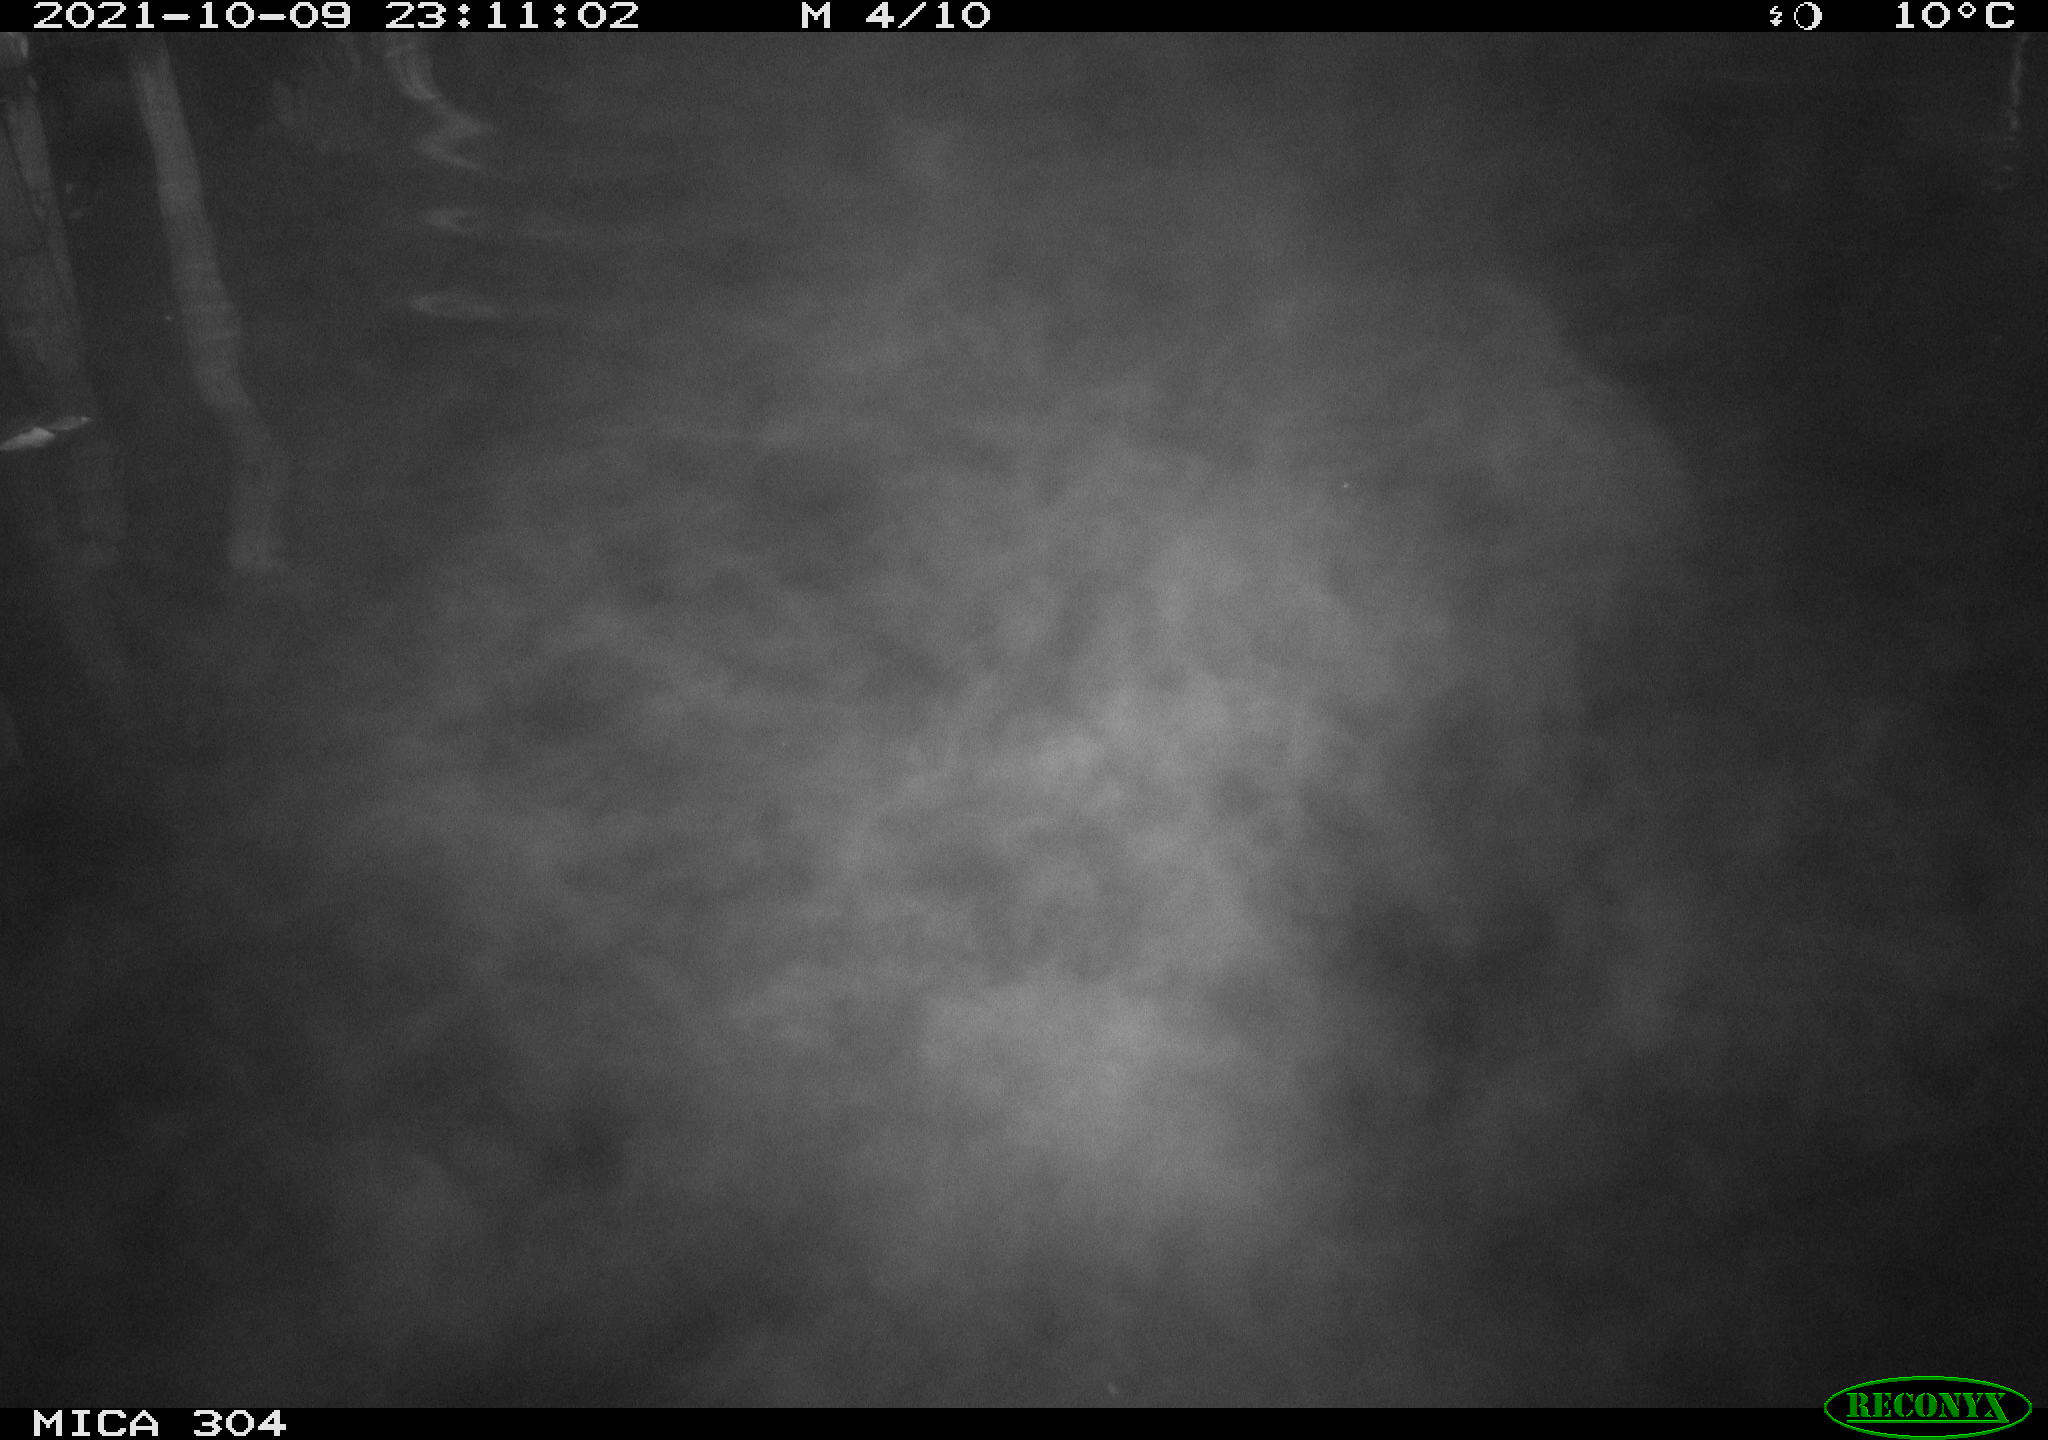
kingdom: Animalia
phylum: Chordata
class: Mammalia
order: Rodentia
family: Cricetidae
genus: Ondatra
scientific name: Ondatra zibethicus
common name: Muskrat
